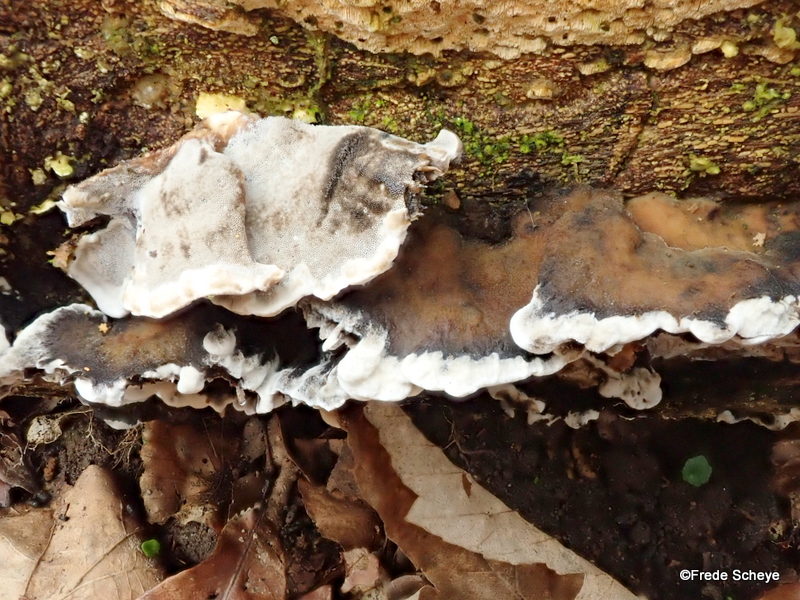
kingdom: Fungi
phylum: Basidiomycota
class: Agaricomycetes
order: Polyporales
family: Phanerochaetaceae
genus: Bjerkandera
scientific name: Bjerkandera adusta
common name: sveden sodporesvamp
